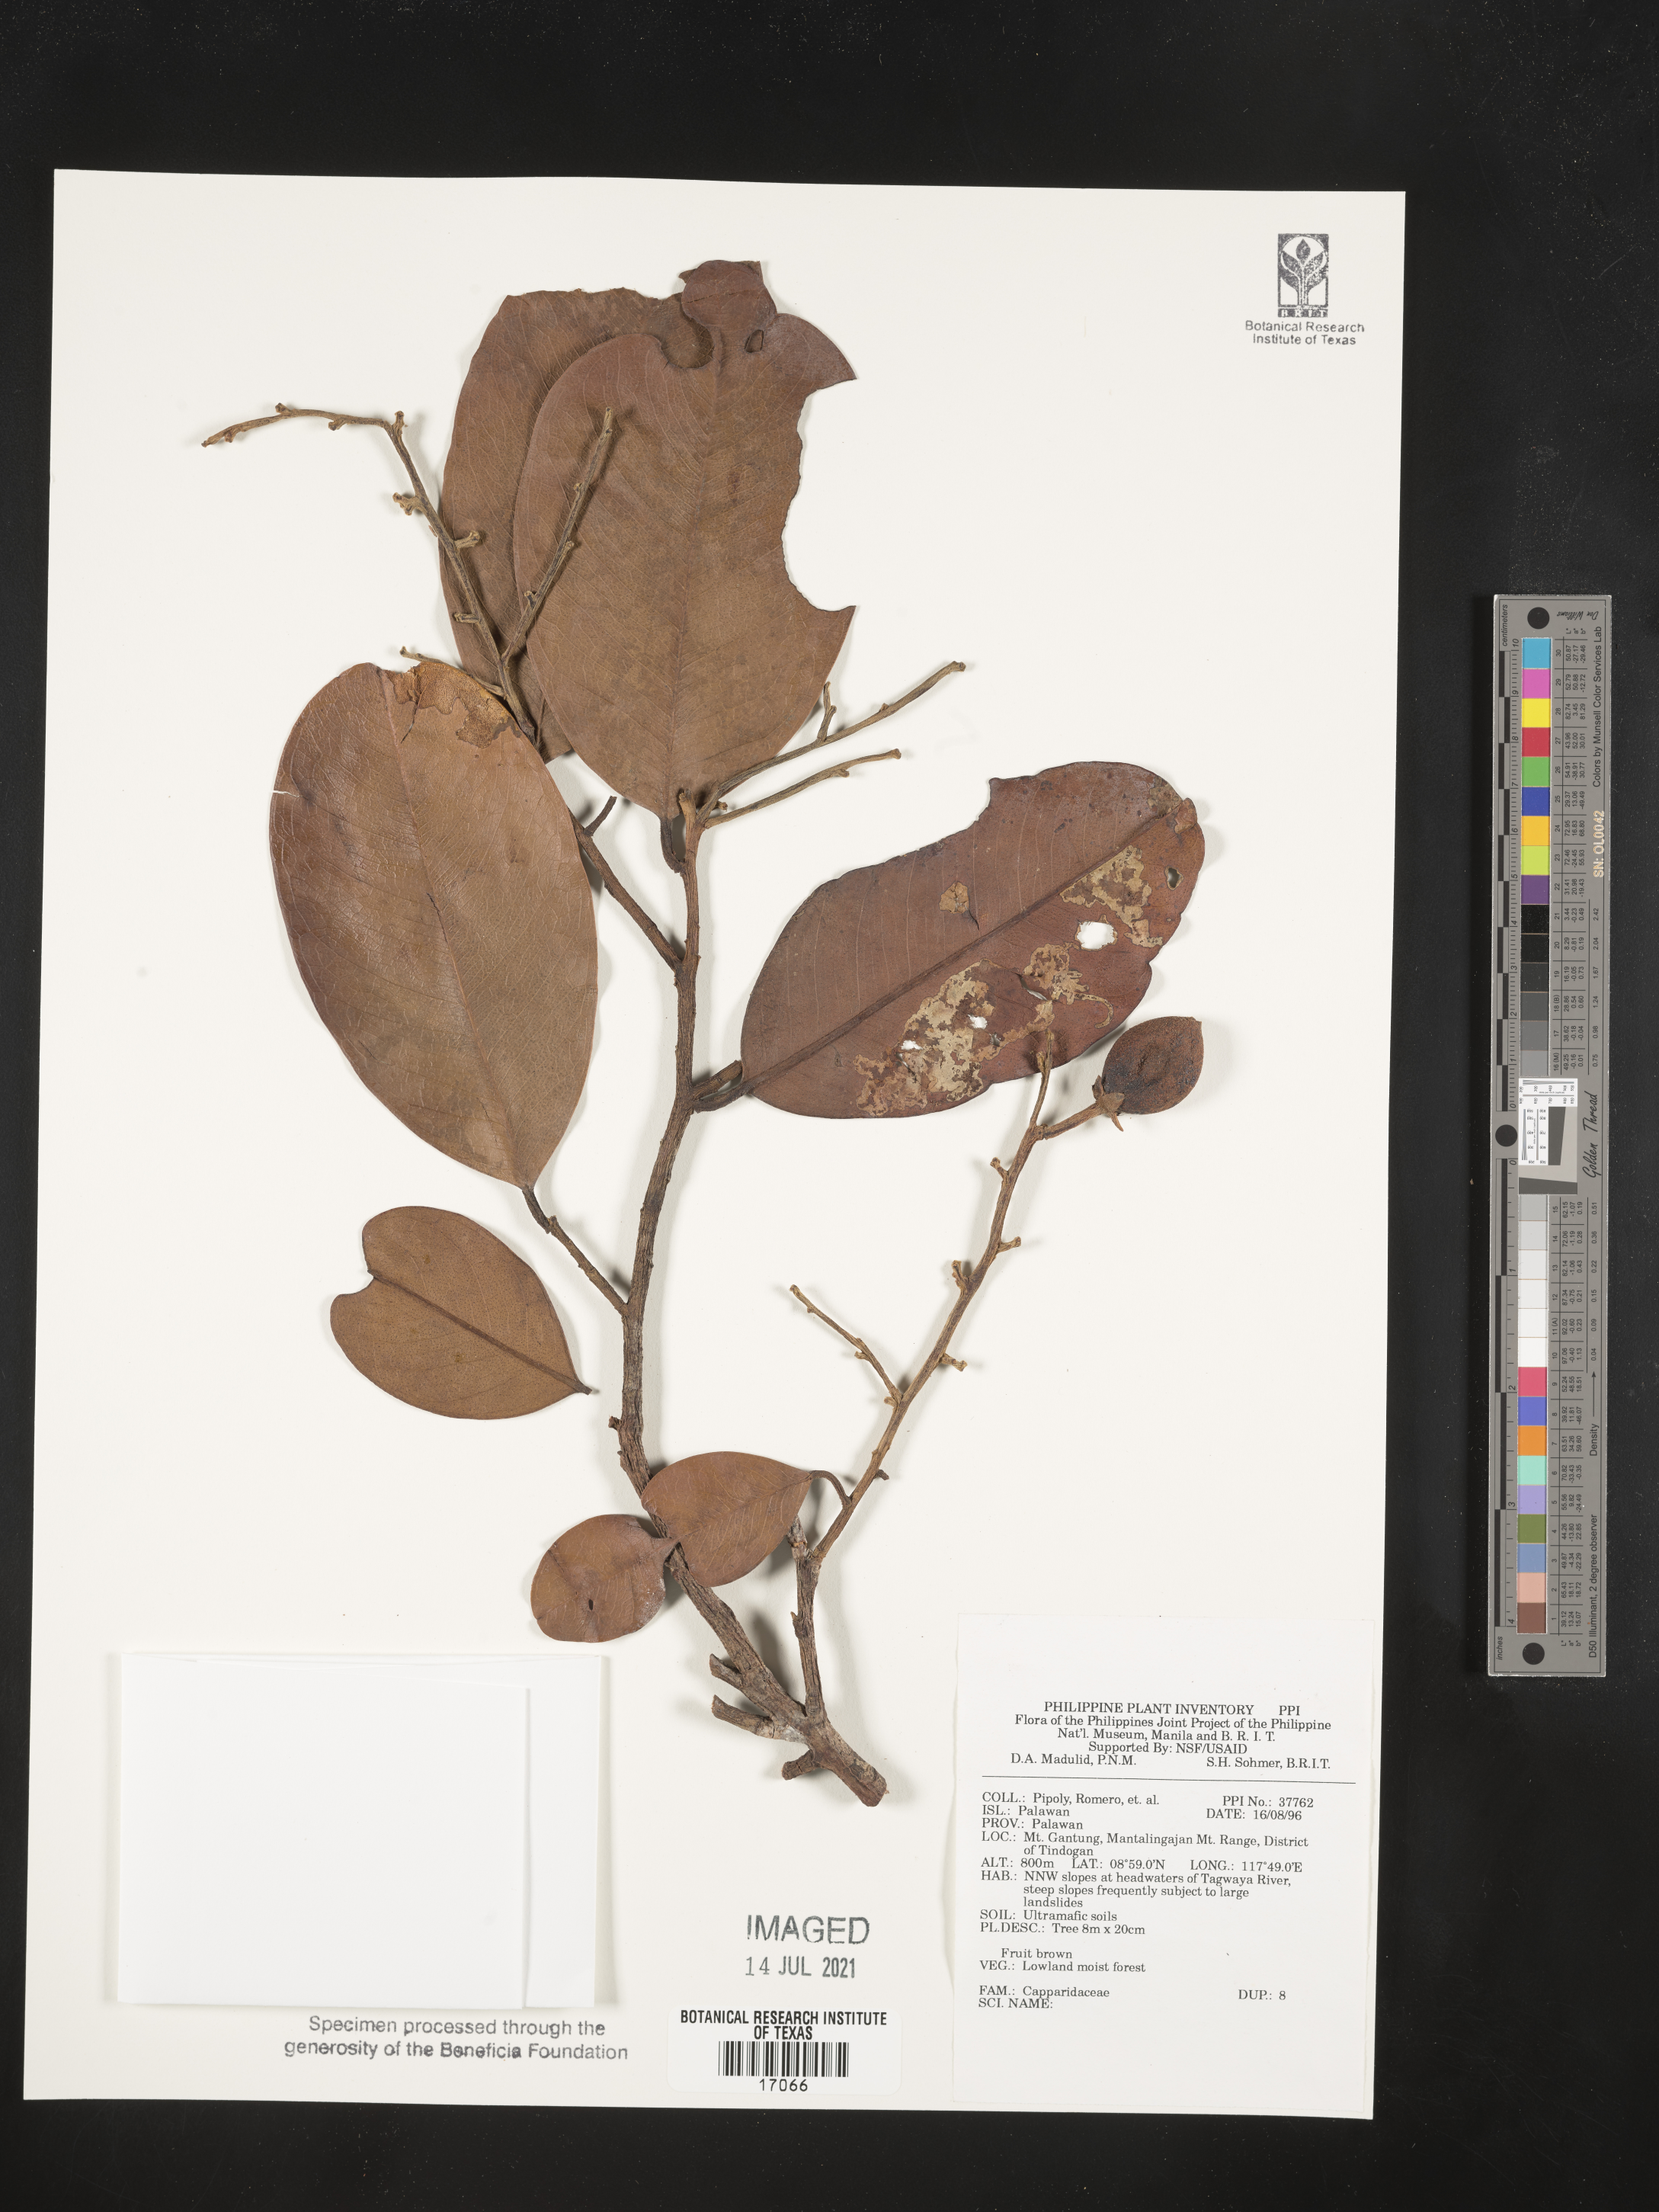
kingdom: Plantae
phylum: Tracheophyta
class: Magnoliopsida
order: Brassicales
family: Capparaceae
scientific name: Capparaceae
